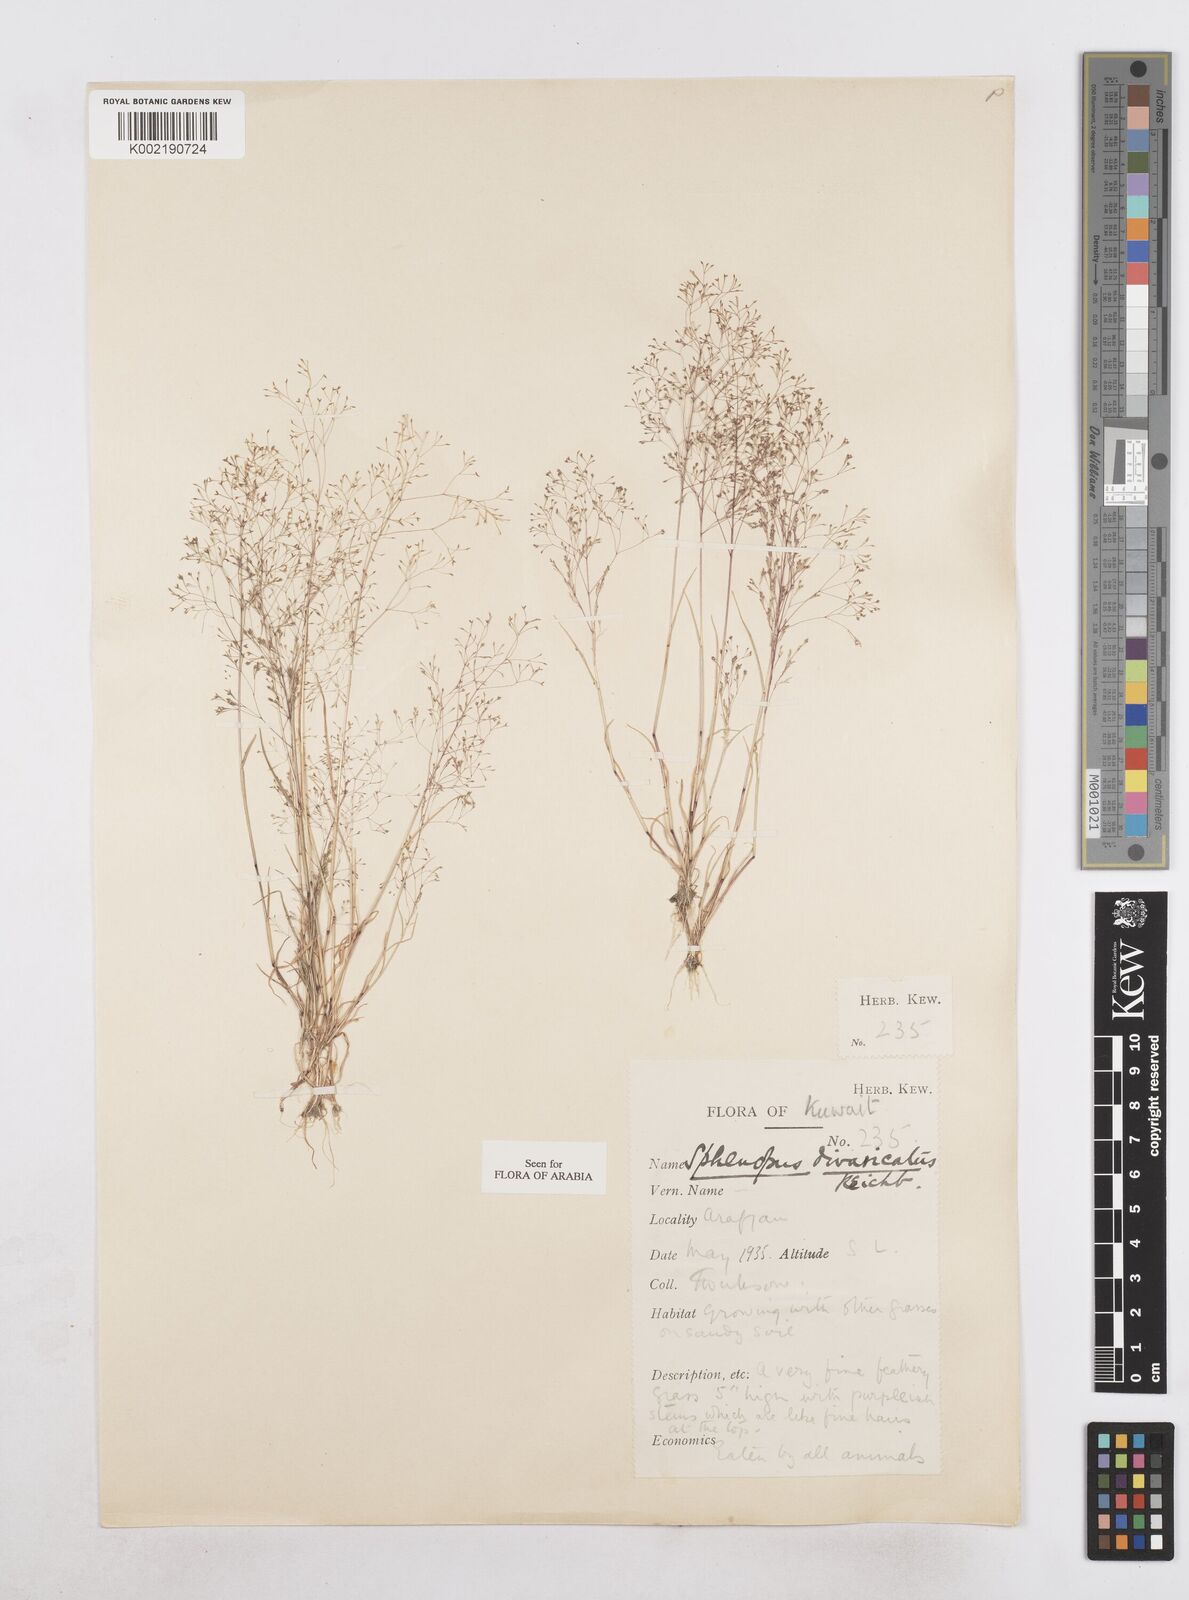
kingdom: Plantae
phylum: Tracheophyta
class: Liliopsida
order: Poales
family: Poaceae
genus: Sphenopus
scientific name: Sphenopus divaricatus
